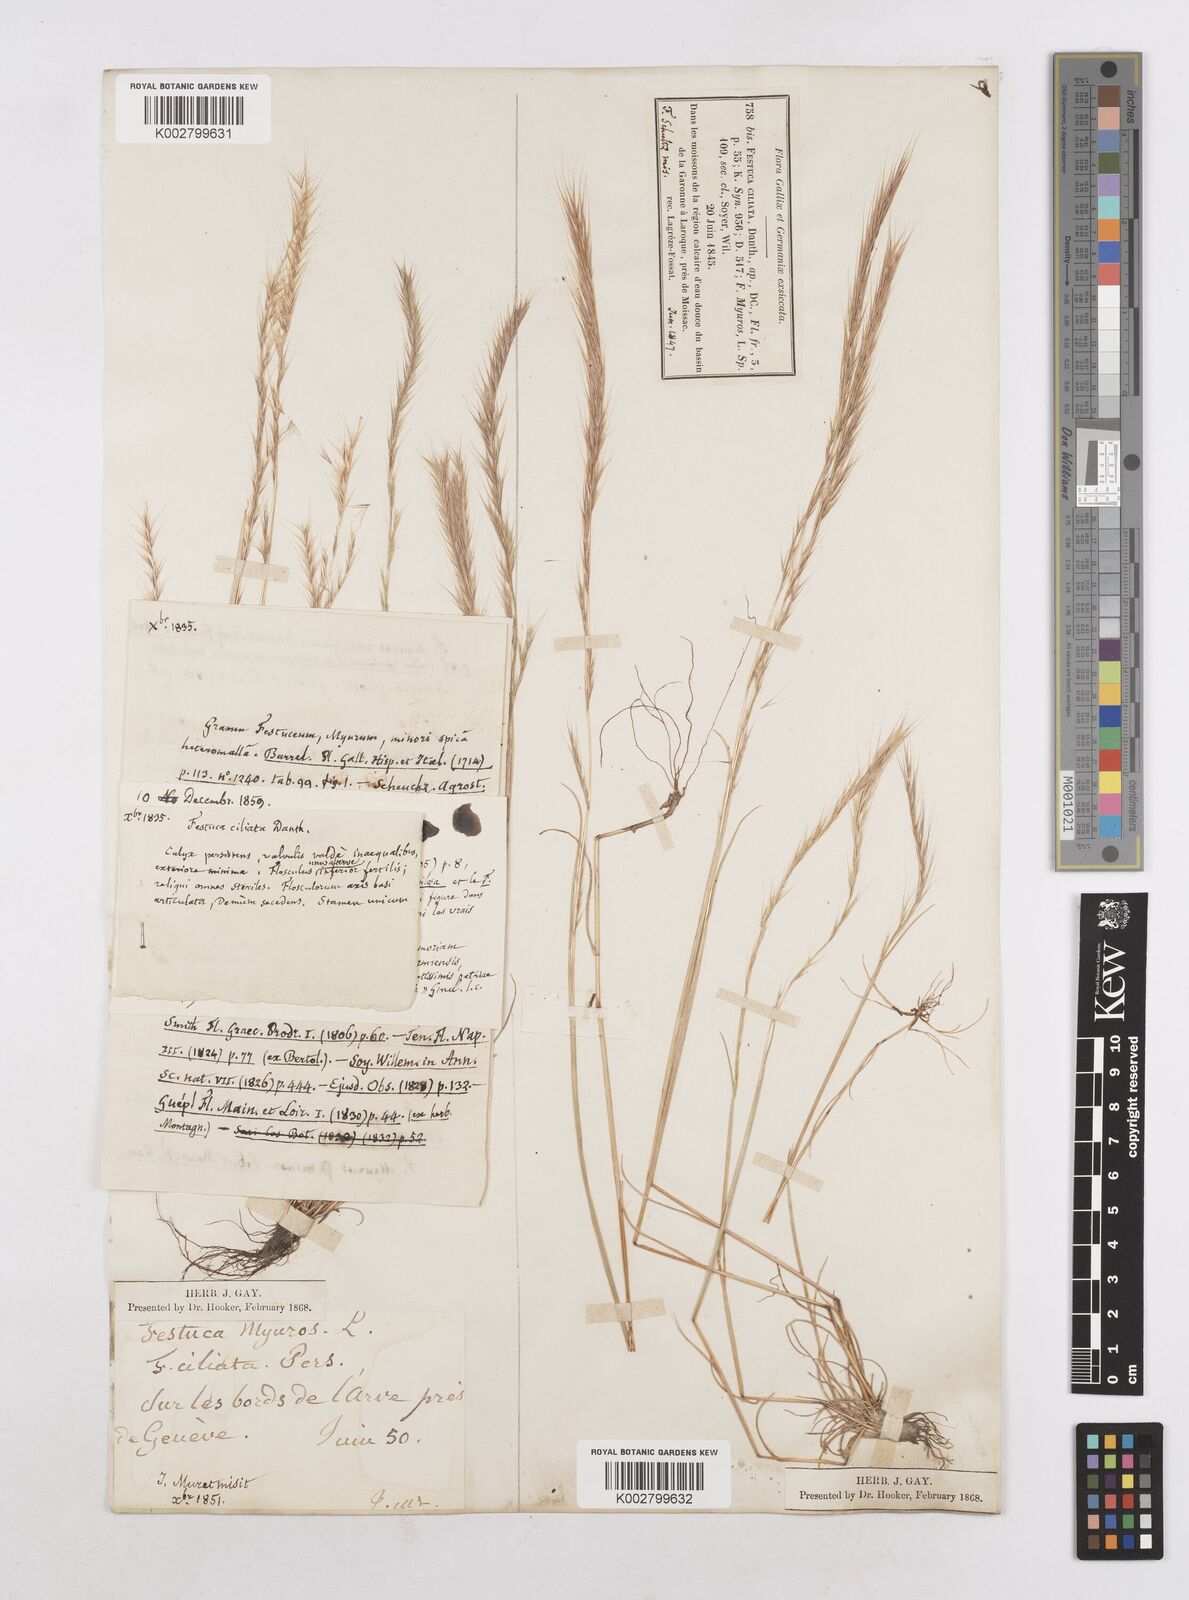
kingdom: Plantae
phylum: Tracheophyta
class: Liliopsida
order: Poales
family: Poaceae
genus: Festuca
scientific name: Festuca
